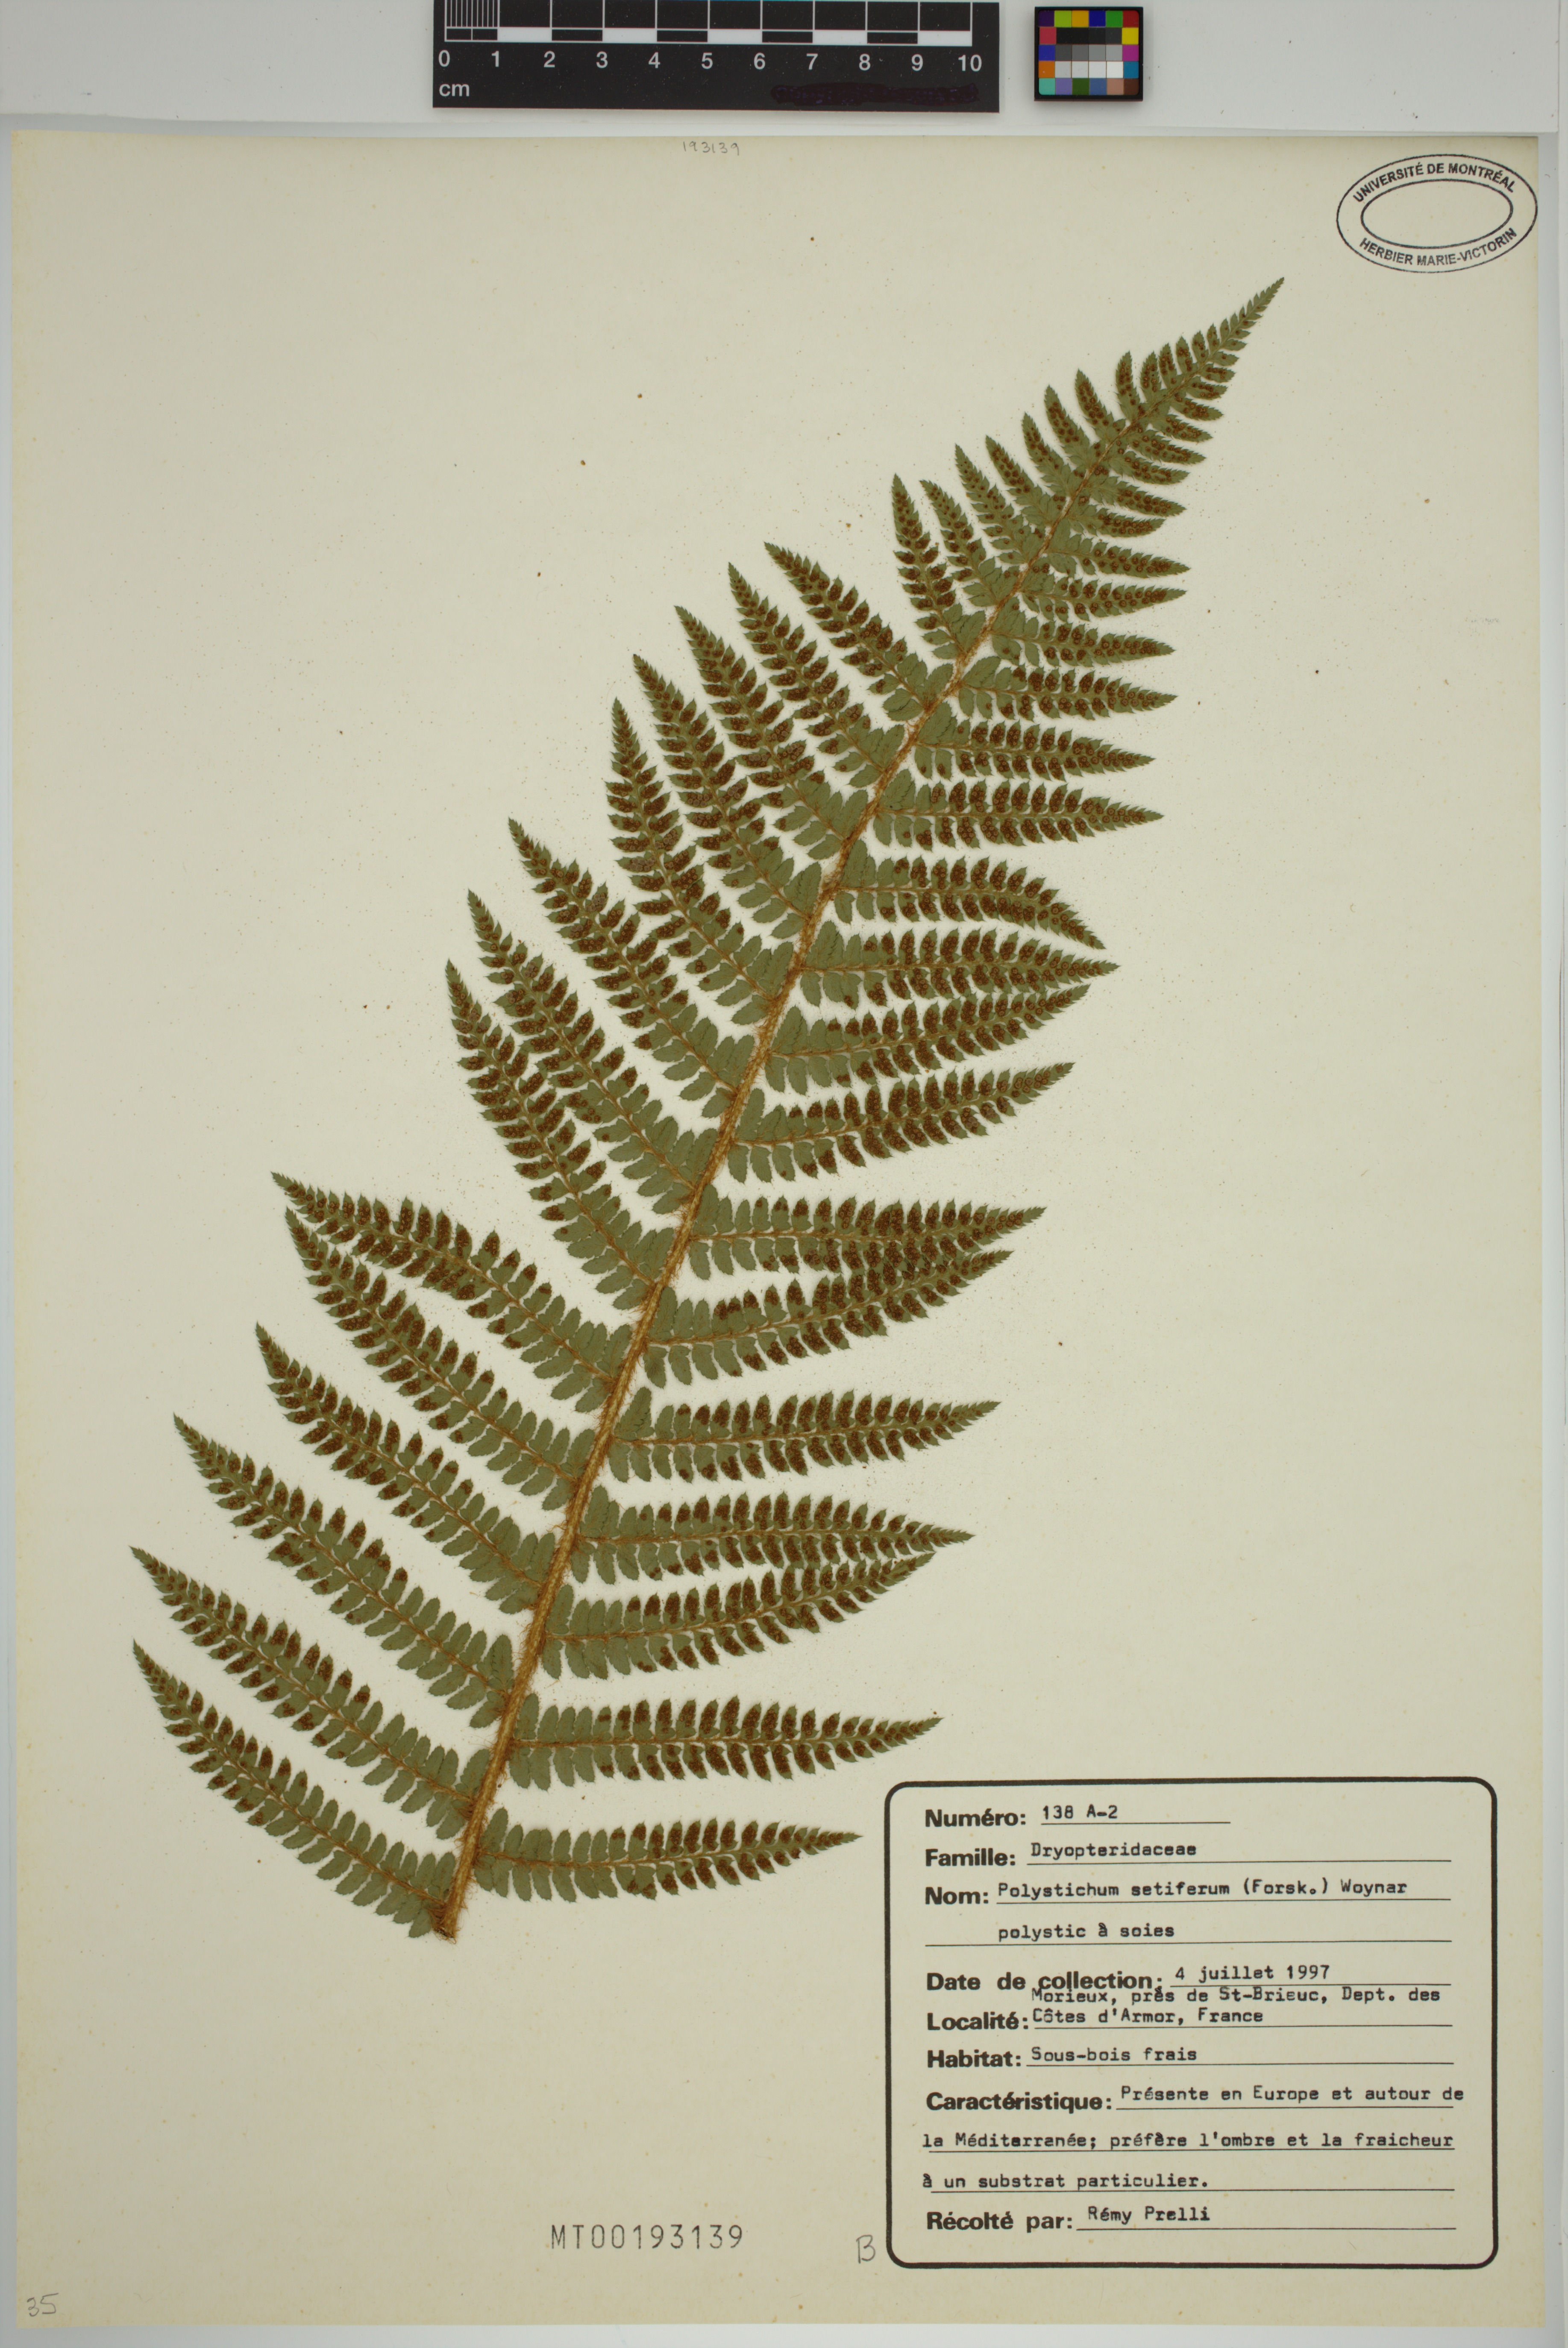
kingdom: Plantae
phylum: Tracheophyta
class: Polypodiopsida
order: Polypodiales
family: Dryopteridaceae
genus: Polystichum
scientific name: Polystichum setiferum
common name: Soft shield-fern
